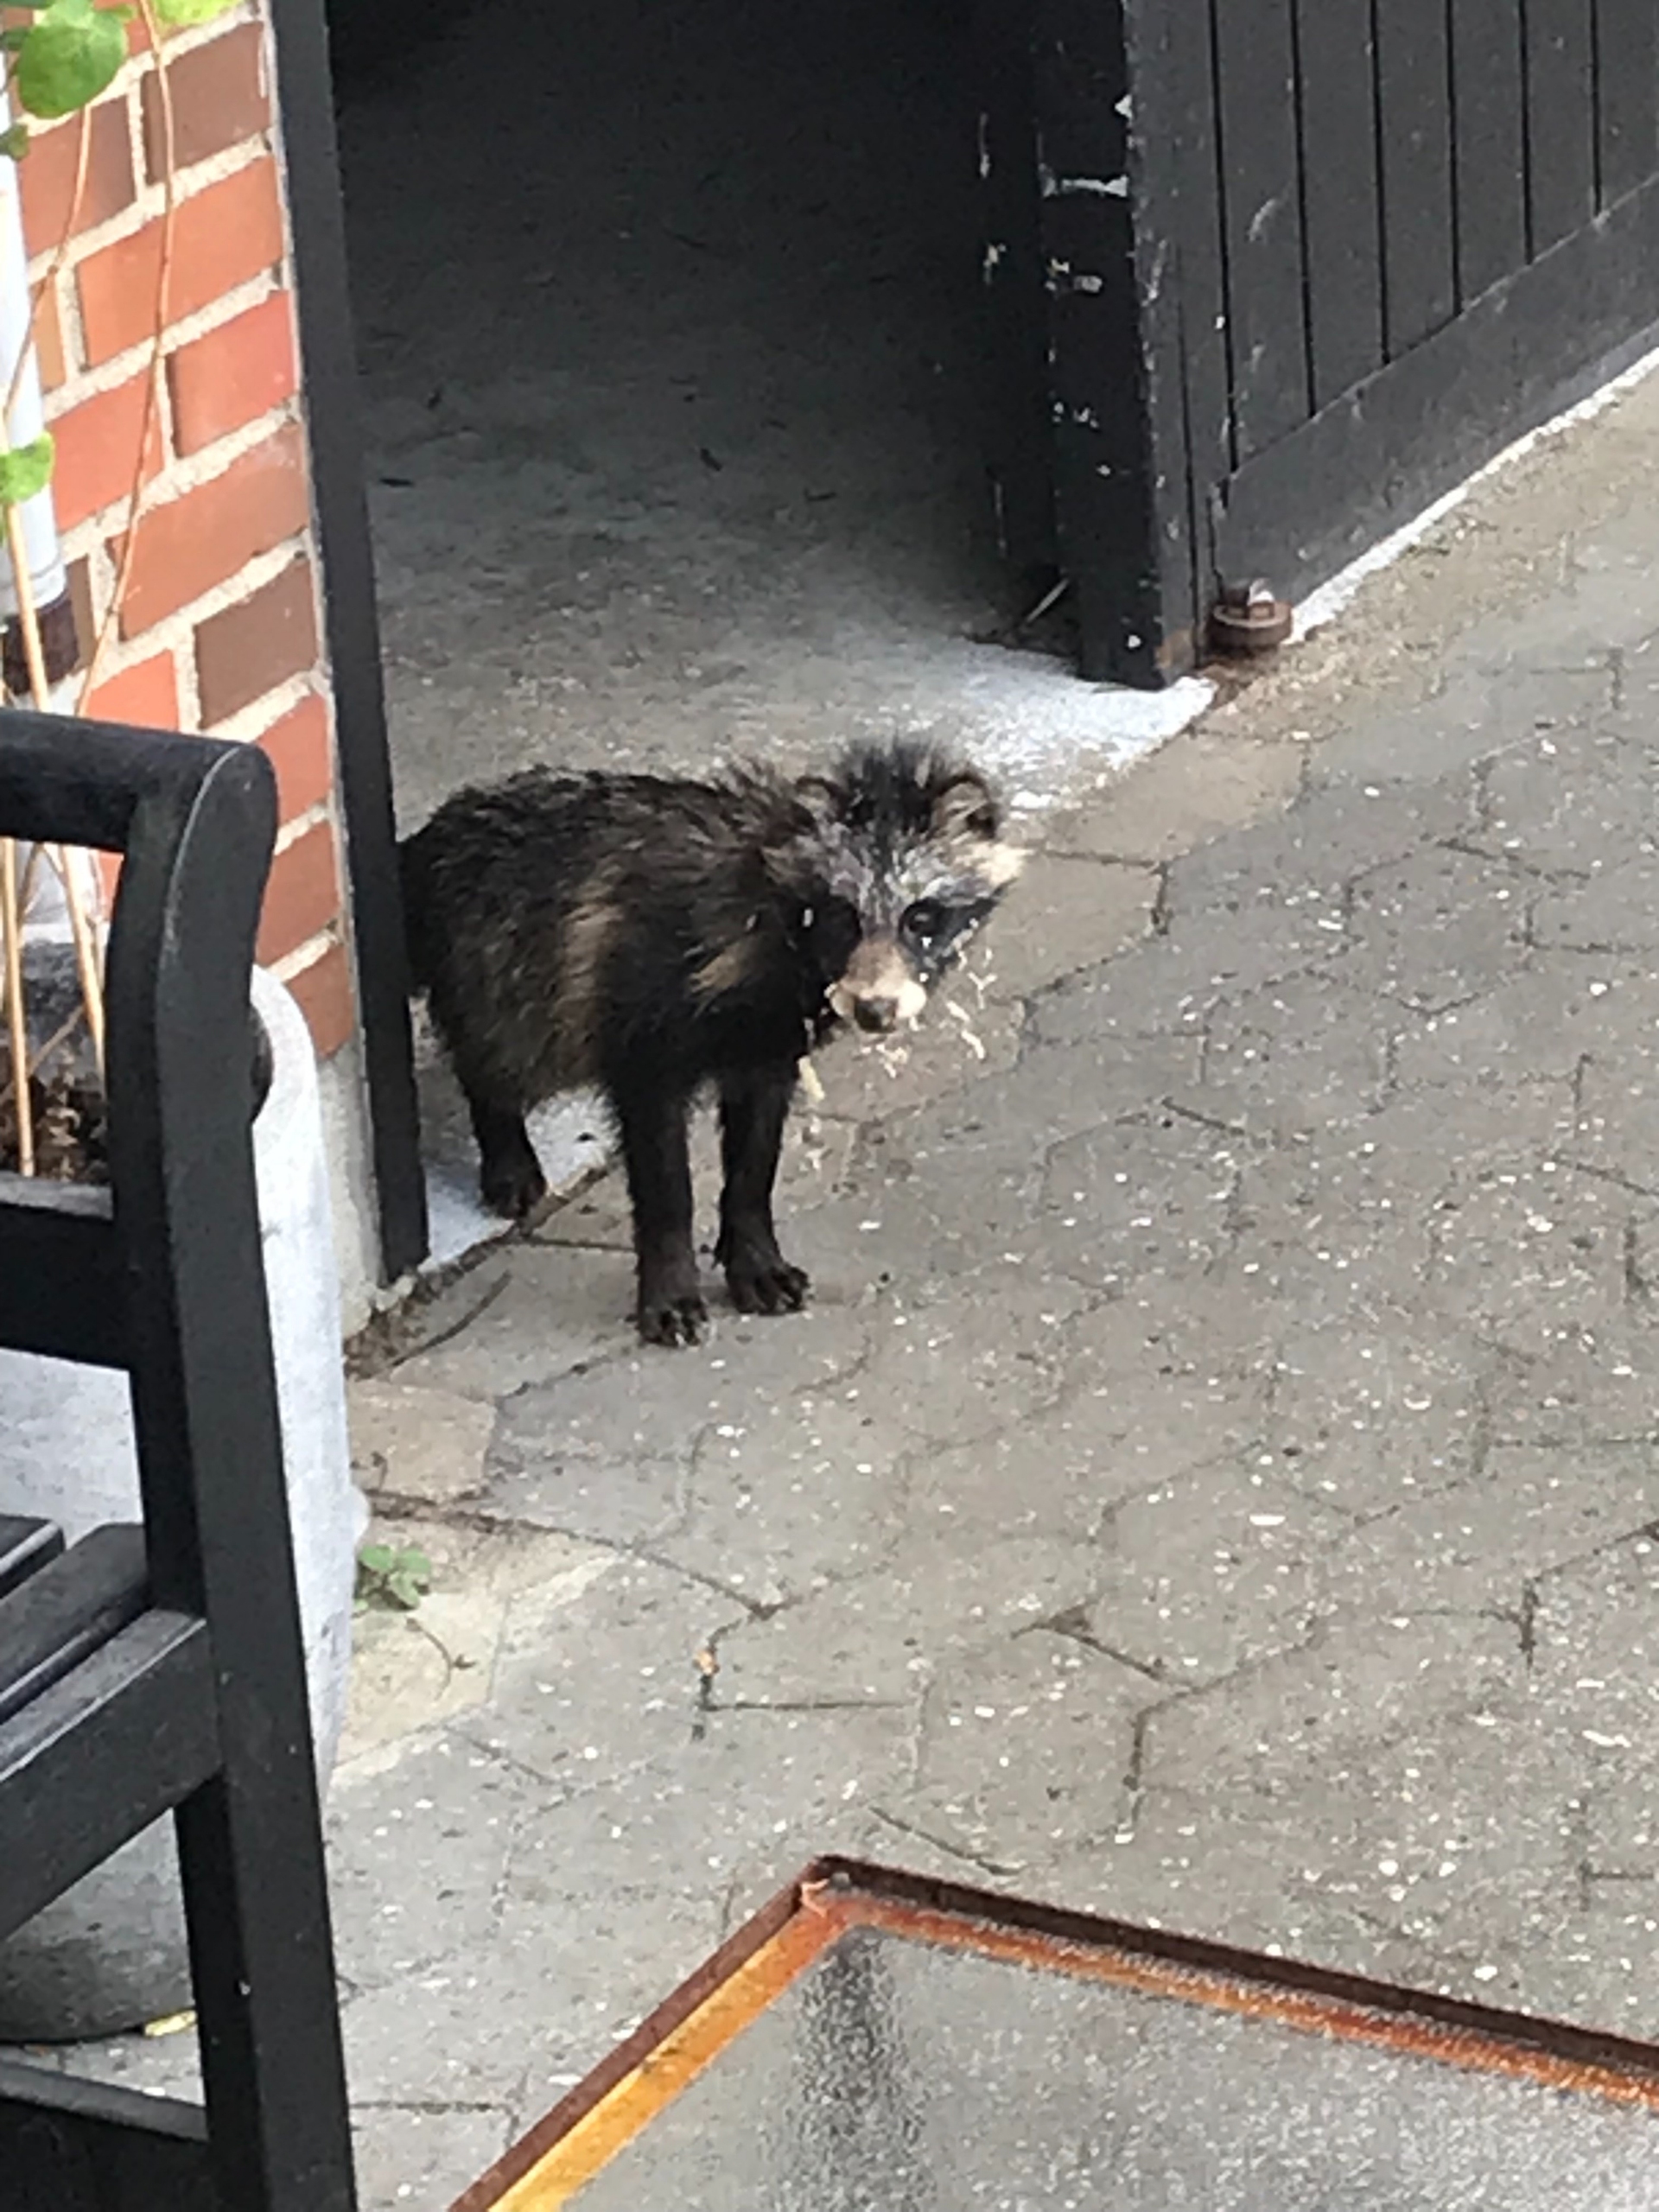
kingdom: Animalia
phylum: Chordata
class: Mammalia
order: Carnivora
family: Canidae
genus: Nyctereutes
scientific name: Nyctereutes procyonoides
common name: Mårhund
